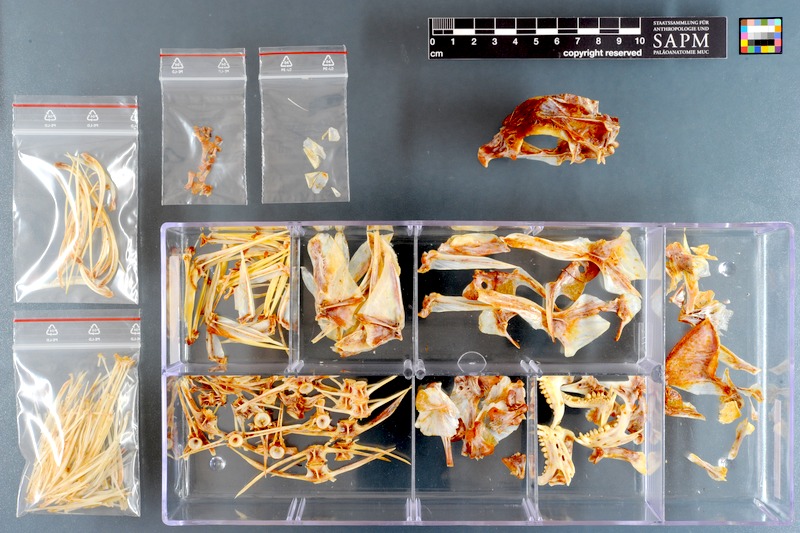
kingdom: Animalia
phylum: Chordata
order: Perciformes
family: Sparidae
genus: Chrysoblephus
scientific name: Chrysoblephus cristiceps
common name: Dageraad
